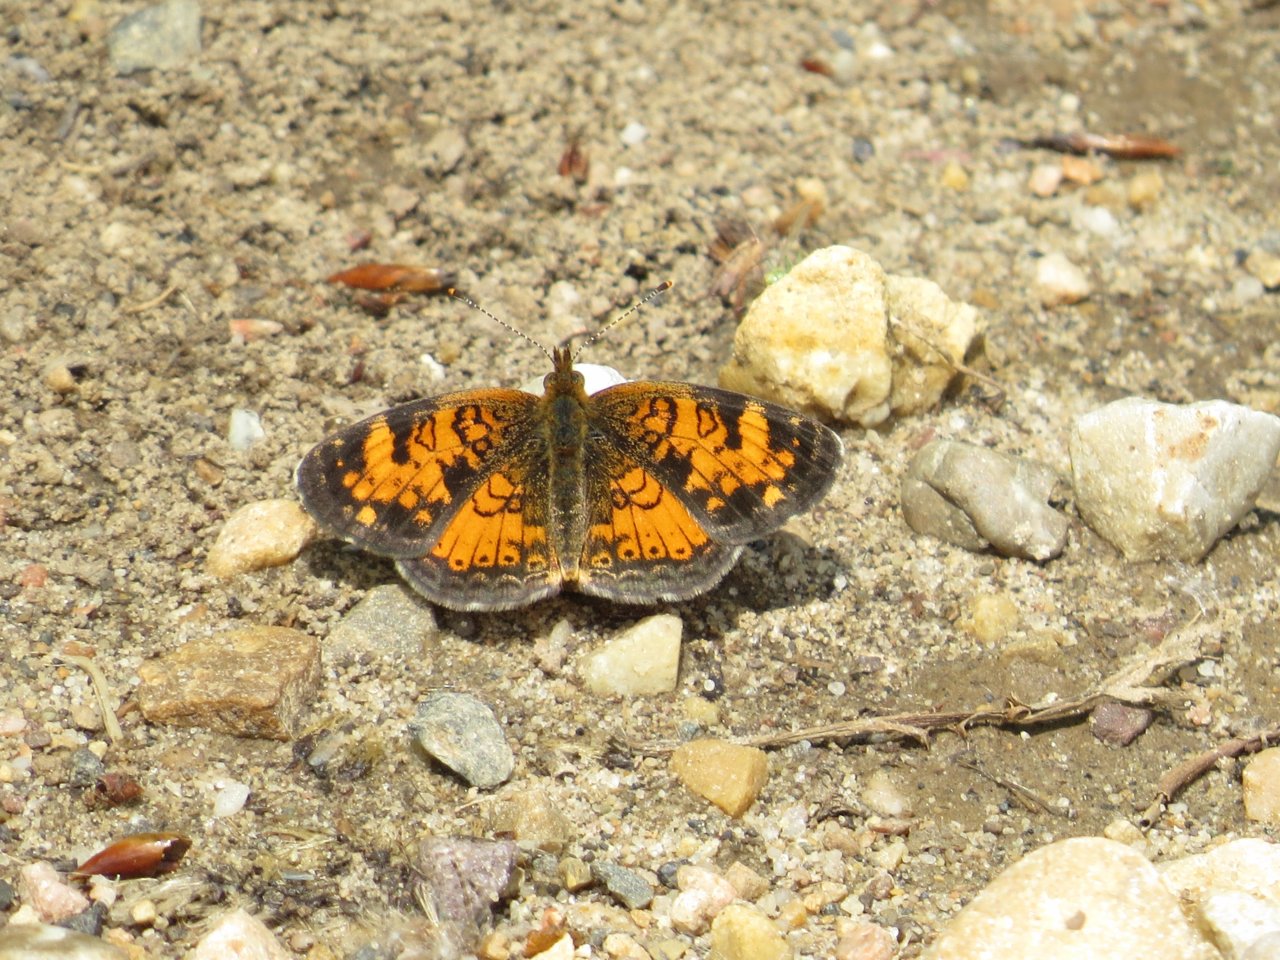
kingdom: Animalia
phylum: Arthropoda
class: Insecta
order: Lepidoptera
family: Nymphalidae
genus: Phyciodes
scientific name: Phyciodes tharos
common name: Northern Crescent
